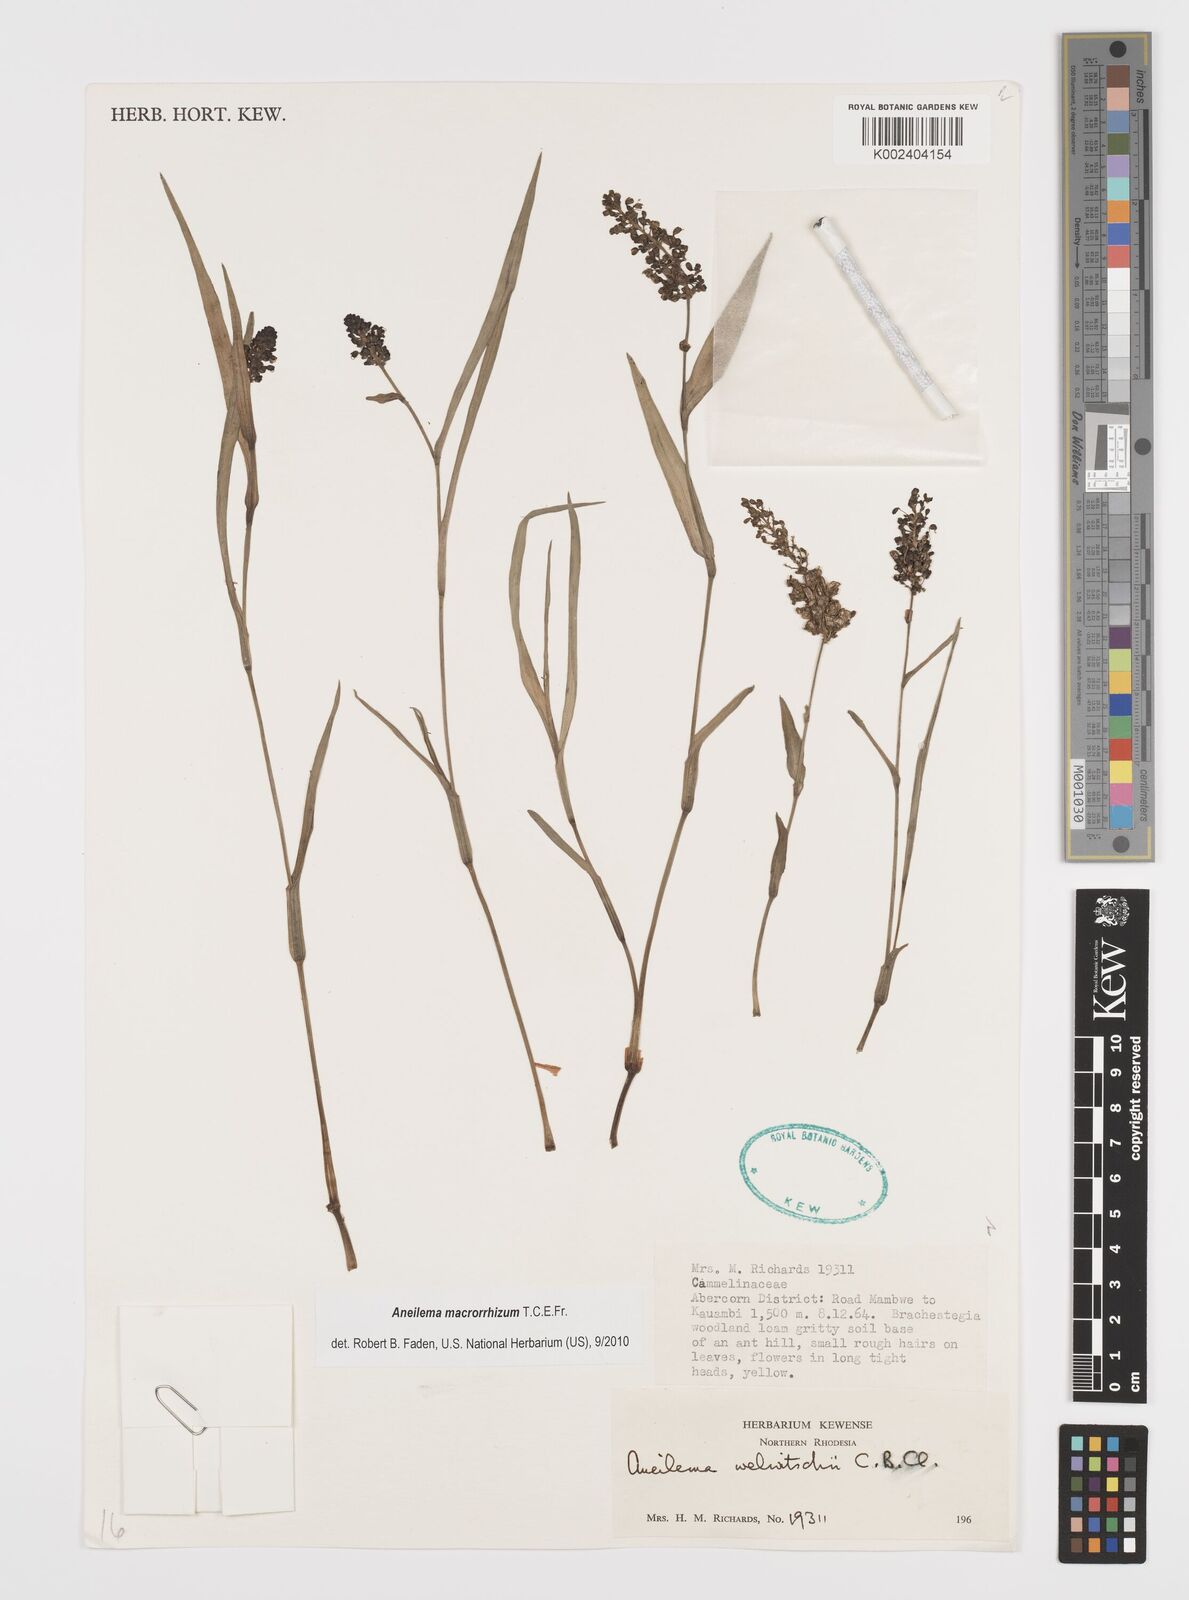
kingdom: Plantae
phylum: Tracheophyta
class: Liliopsida
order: Commelinales
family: Commelinaceae
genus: Aneilema
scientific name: Aneilema macrorrhizum
